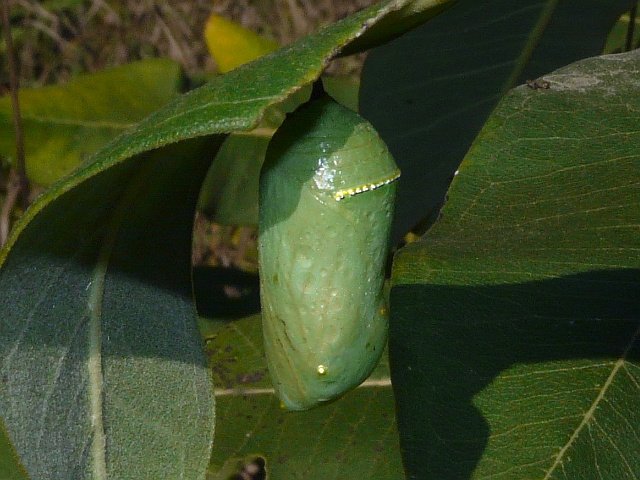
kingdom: Animalia
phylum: Arthropoda
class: Insecta
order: Lepidoptera
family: Nymphalidae
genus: Danaus
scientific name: Danaus plexippus
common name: Monarch
